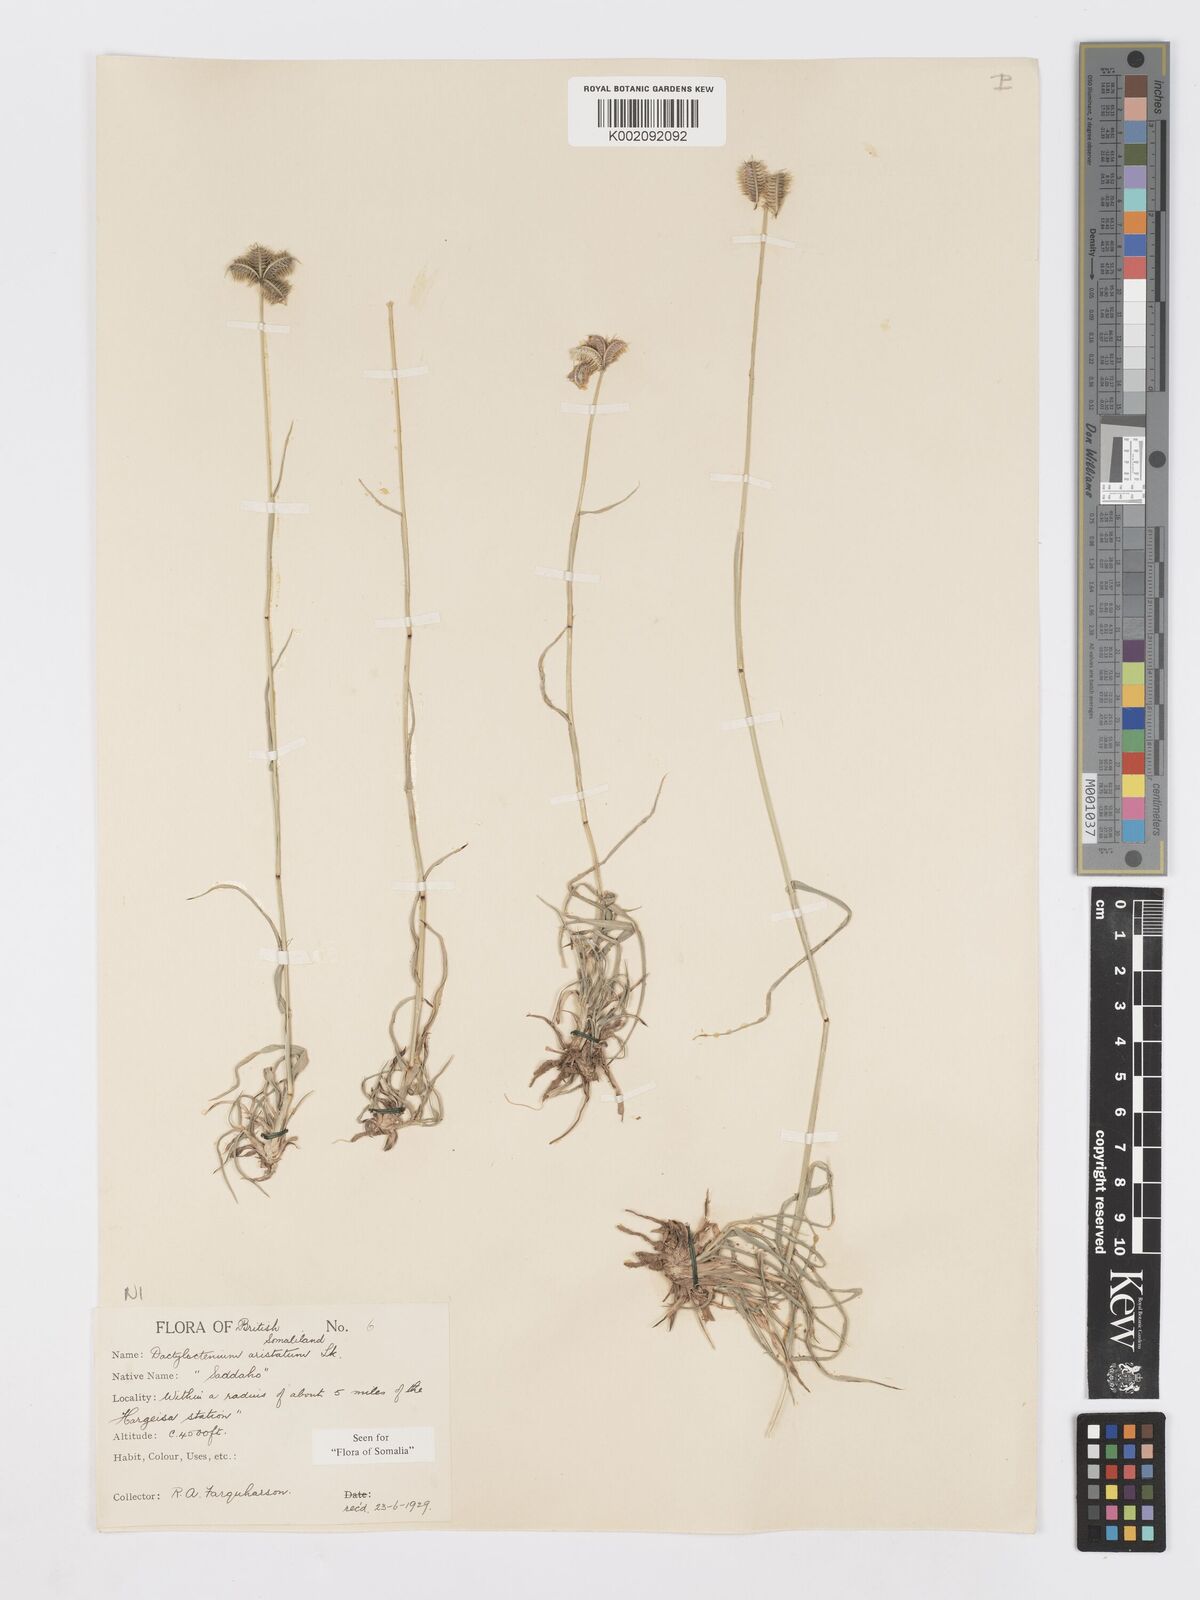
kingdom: Plantae
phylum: Tracheophyta
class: Liliopsida
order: Poales
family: Poaceae
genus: Dactyloctenium
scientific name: Dactyloctenium scindicum
